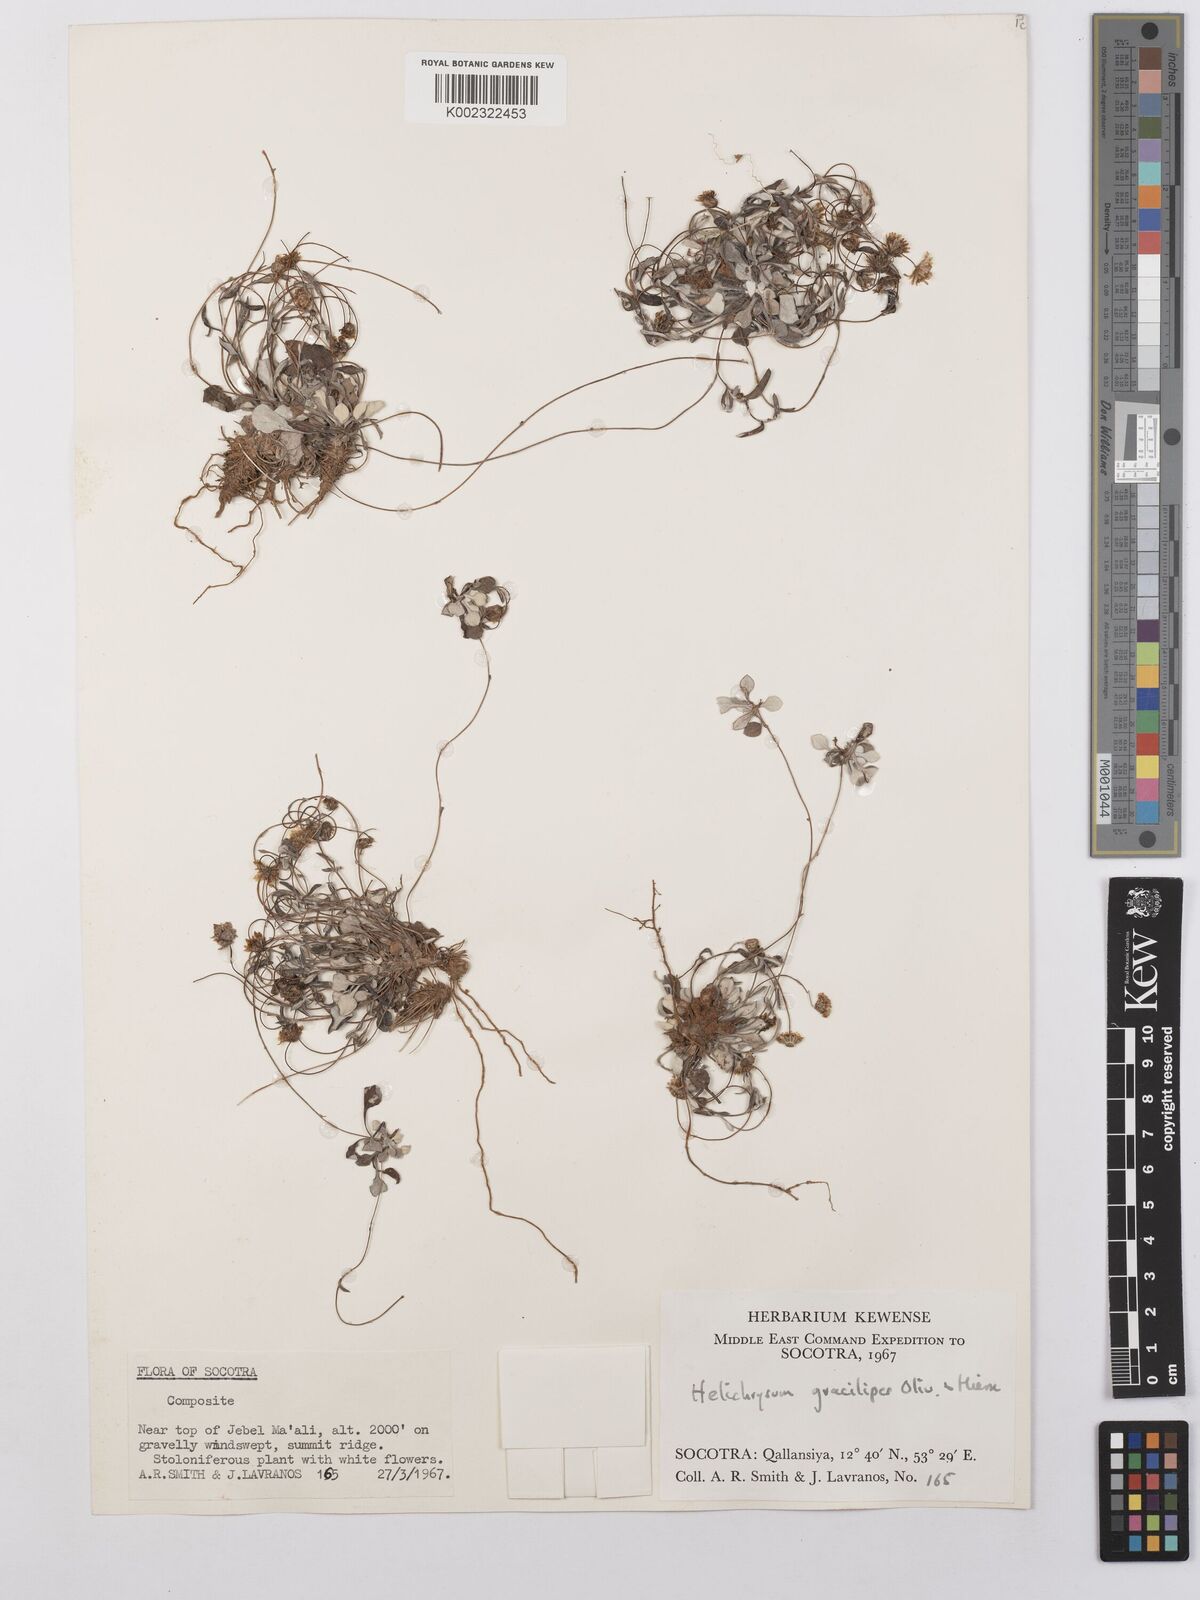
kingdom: Plantae
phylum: Tracheophyta
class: Magnoliopsida
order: Asterales
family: Asteraceae
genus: Libinhania
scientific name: Libinhania gracilipes
